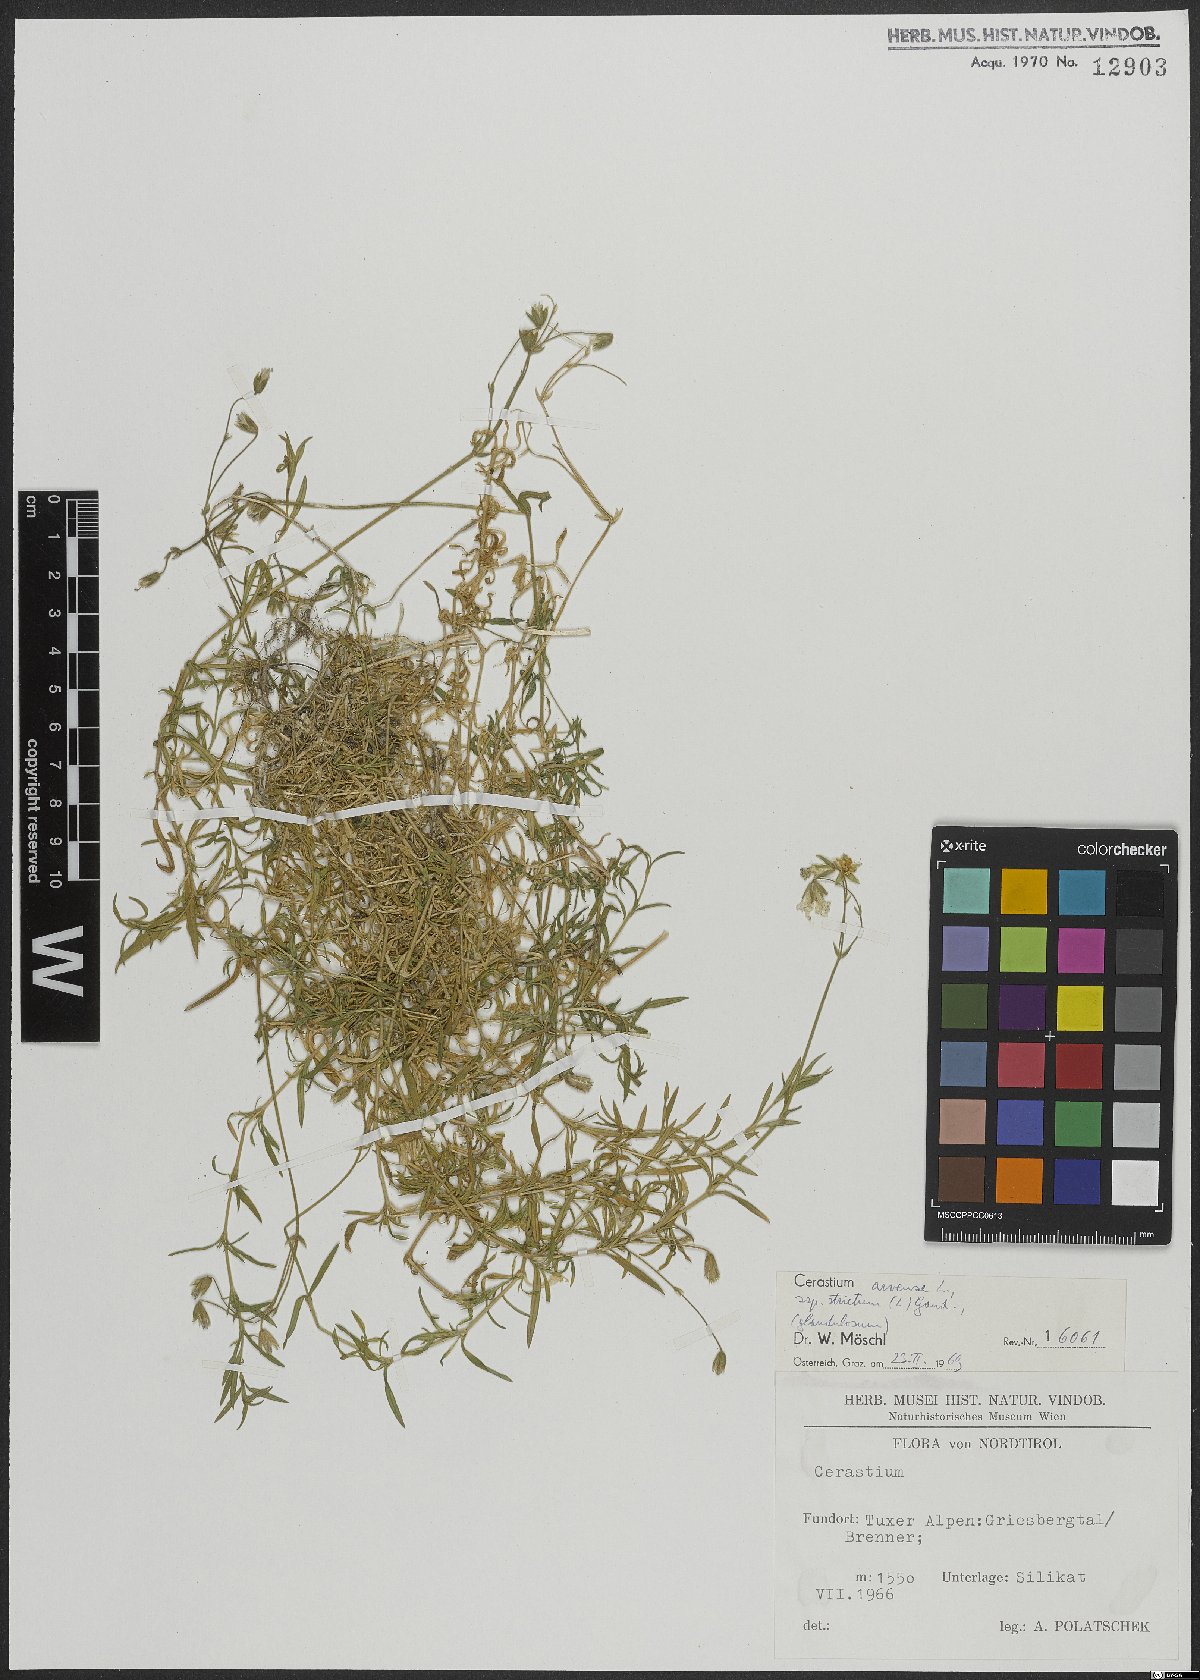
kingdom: Plantae
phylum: Tracheophyta
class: Magnoliopsida
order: Caryophyllales
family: Caryophyllaceae
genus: Cerastium
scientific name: Cerastium elongatum
